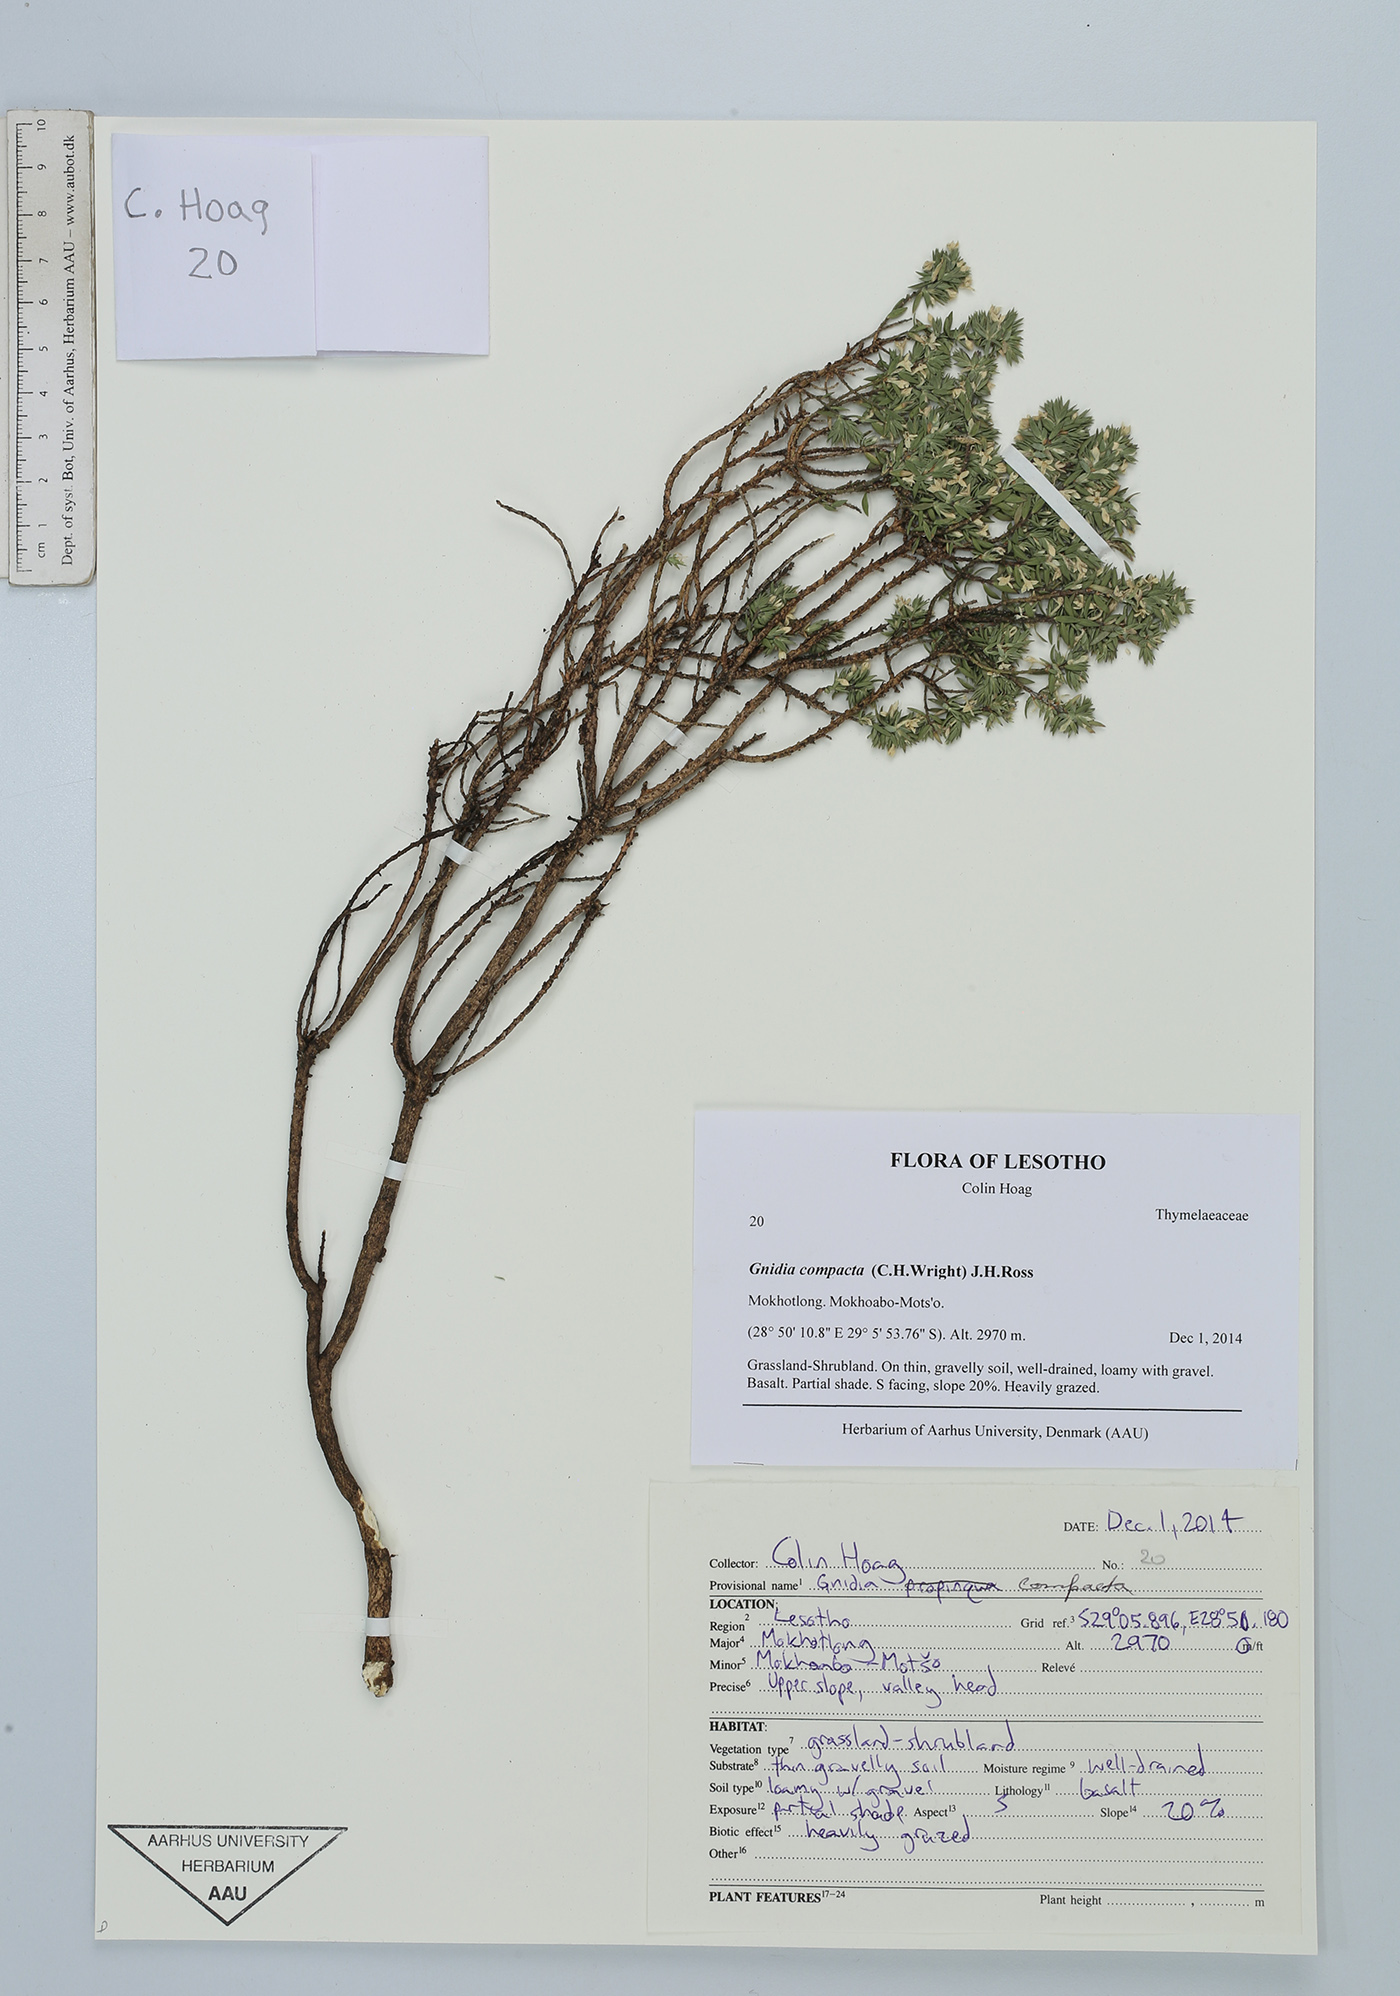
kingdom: Plantae
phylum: Tracheophyta
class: Magnoliopsida
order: Malvales
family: Thymelaeaceae
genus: Gnidia
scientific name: Gnidia compacta
